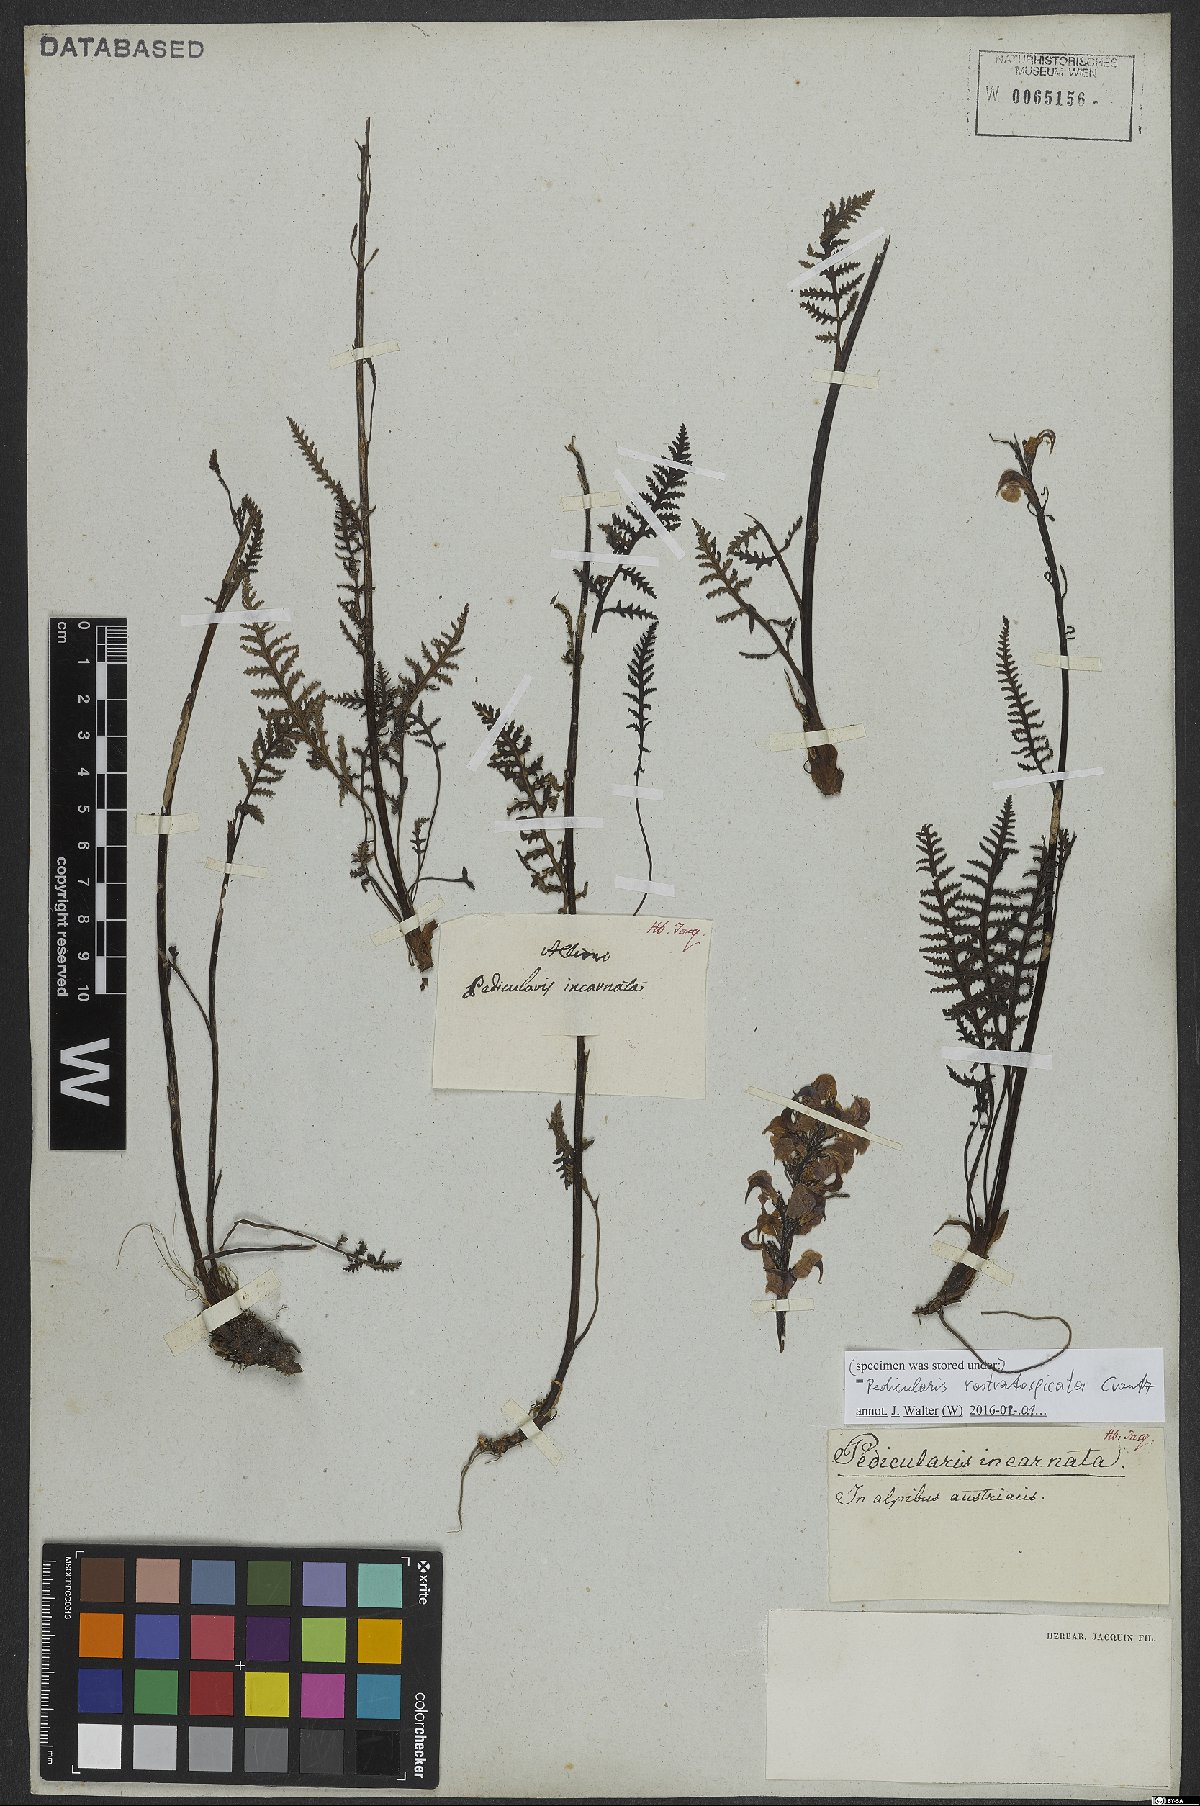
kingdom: Plantae
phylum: Tracheophyta
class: Magnoliopsida
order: Lamiales
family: Orobanchaceae
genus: Pedicularis
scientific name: Pedicularis rostratocapitata
